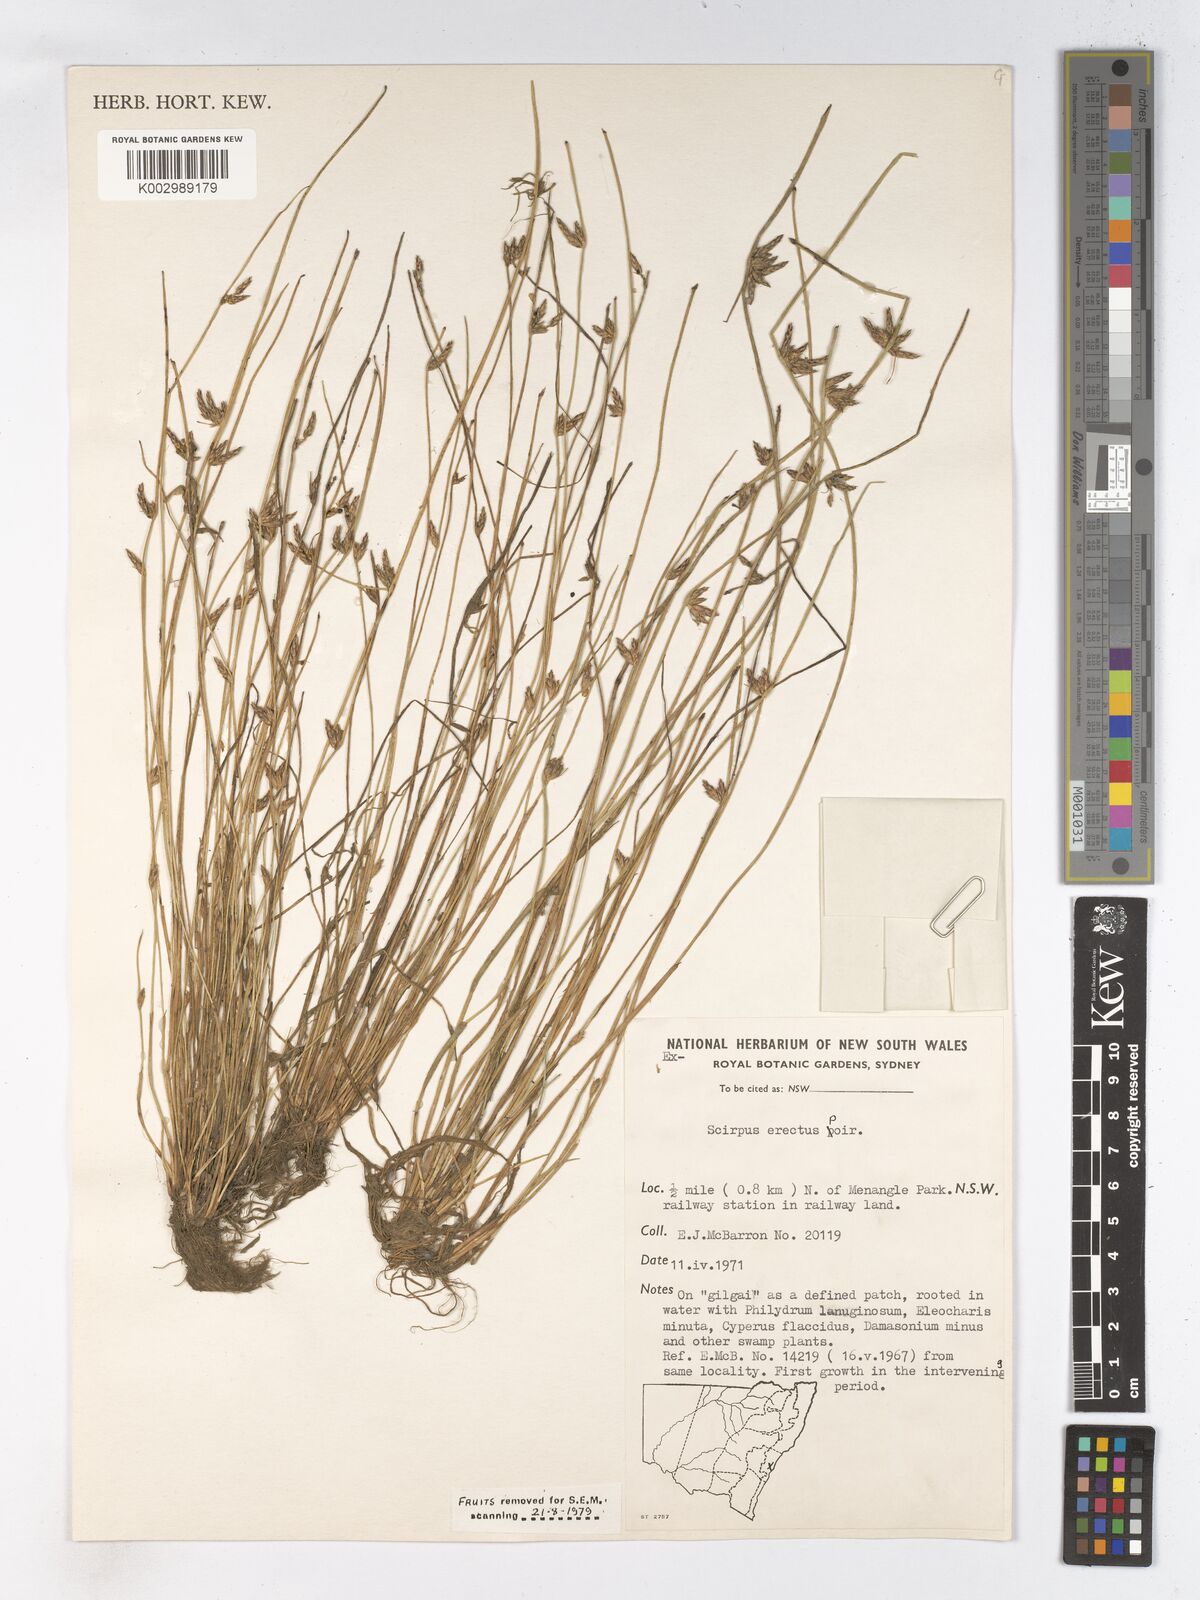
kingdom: Plantae
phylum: Tracheophyta
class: Liliopsida
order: Poales
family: Cyperaceae
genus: Schoenoplectiella
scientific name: Schoenoplectiella erecta
